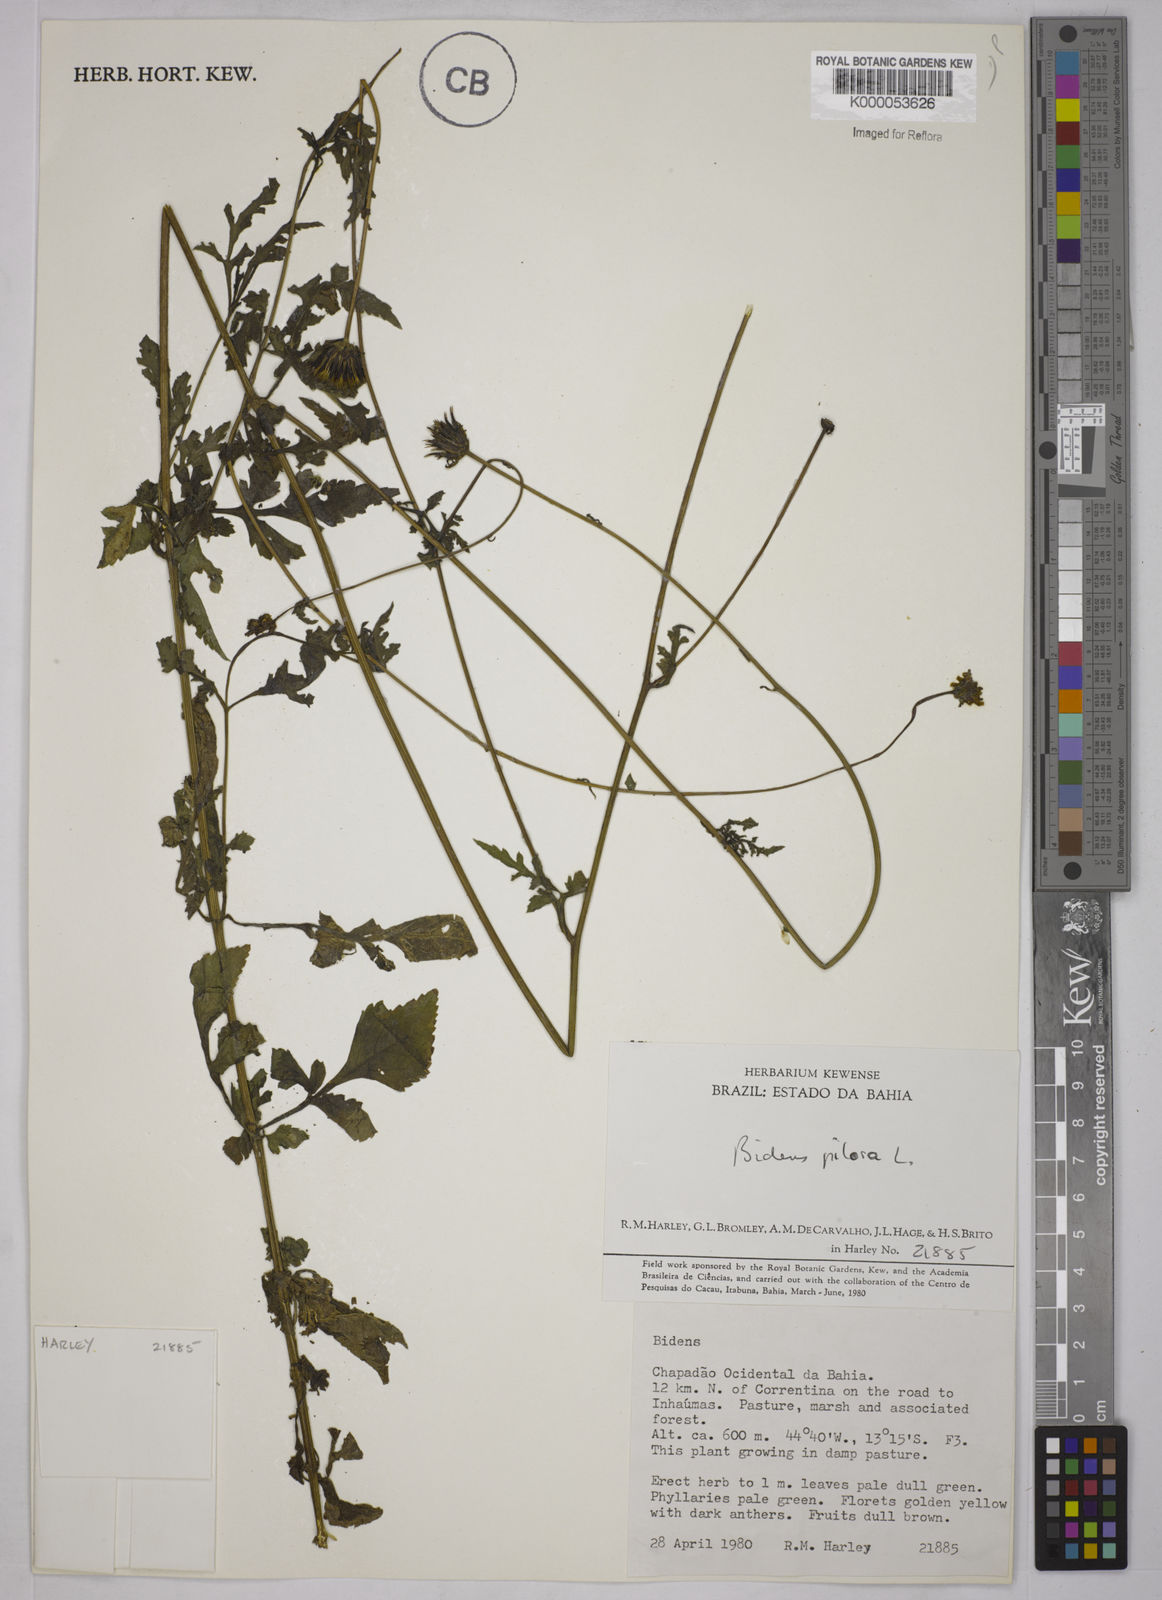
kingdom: Plantae
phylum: Tracheophyta
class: Magnoliopsida
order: Asterales
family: Asteraceae
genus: Bidens
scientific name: Bidens pilosa
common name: Black-jack
